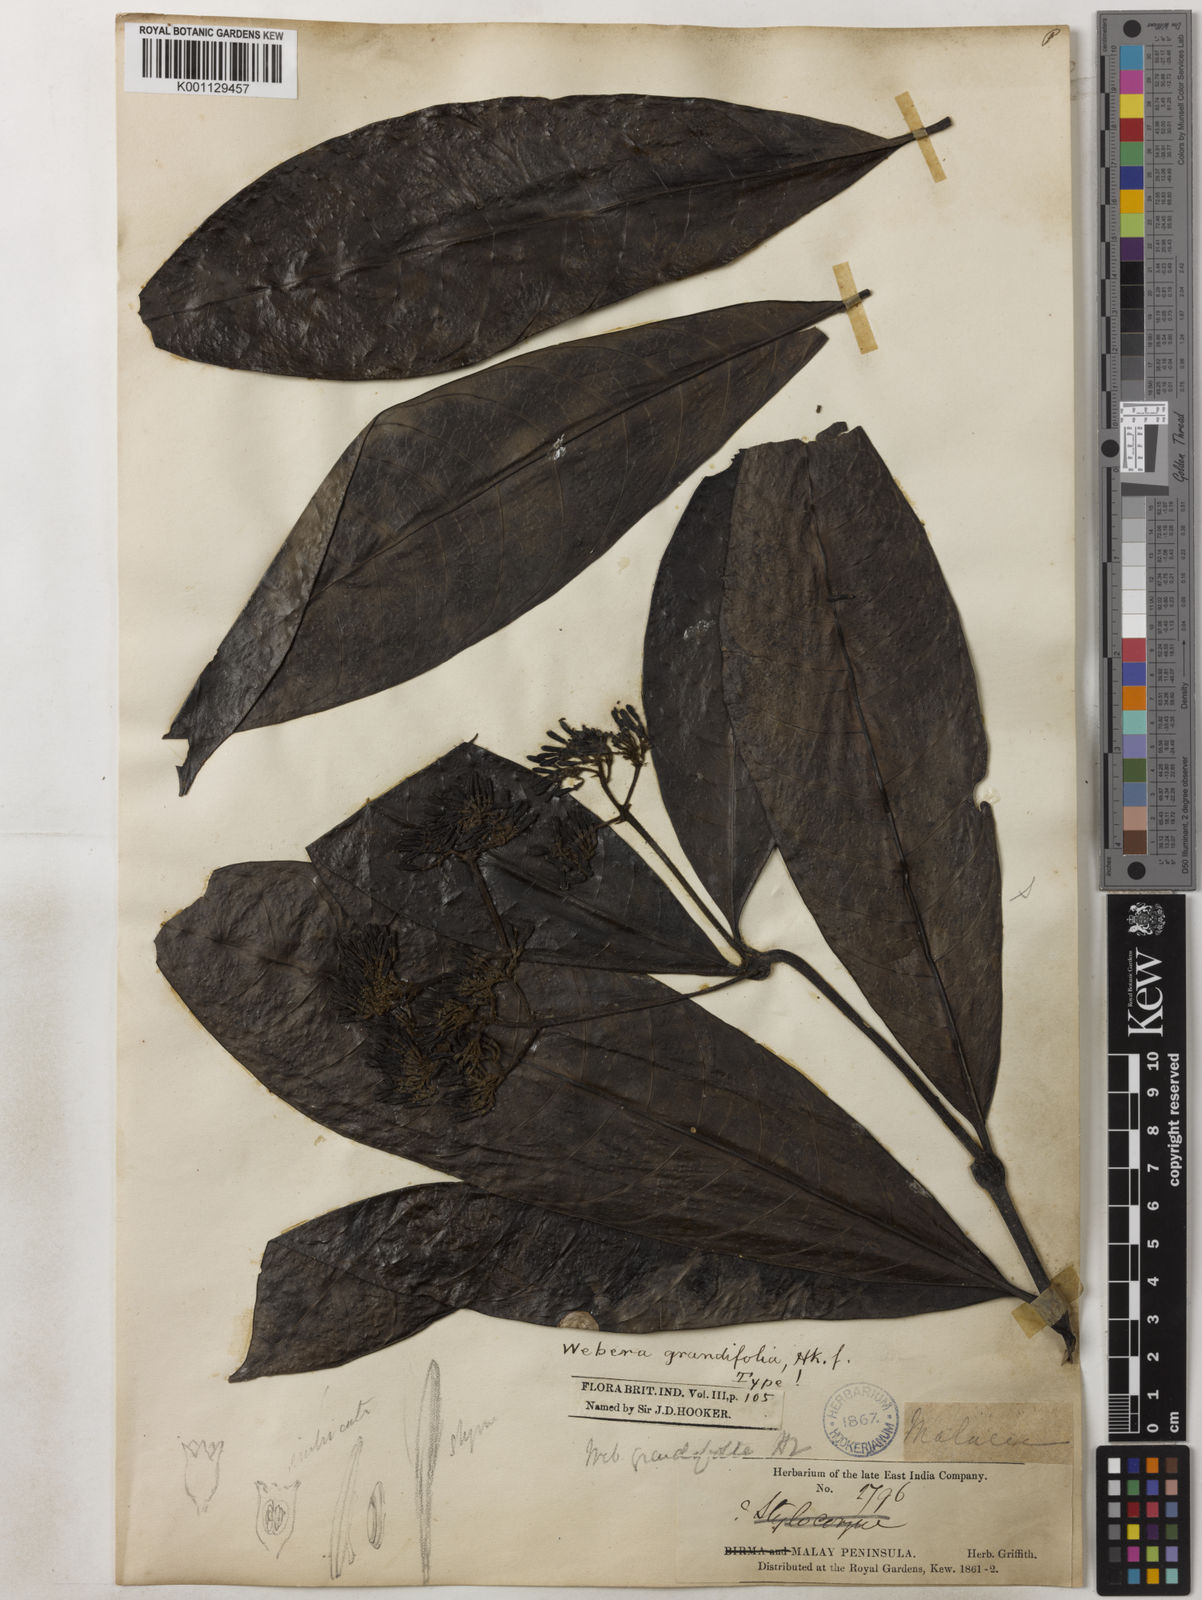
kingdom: Plantae
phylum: Tracheophyta
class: Magnoliopsida
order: Gentianales
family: Rubiaceae
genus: Tarenna
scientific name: Tarenna longifolia
